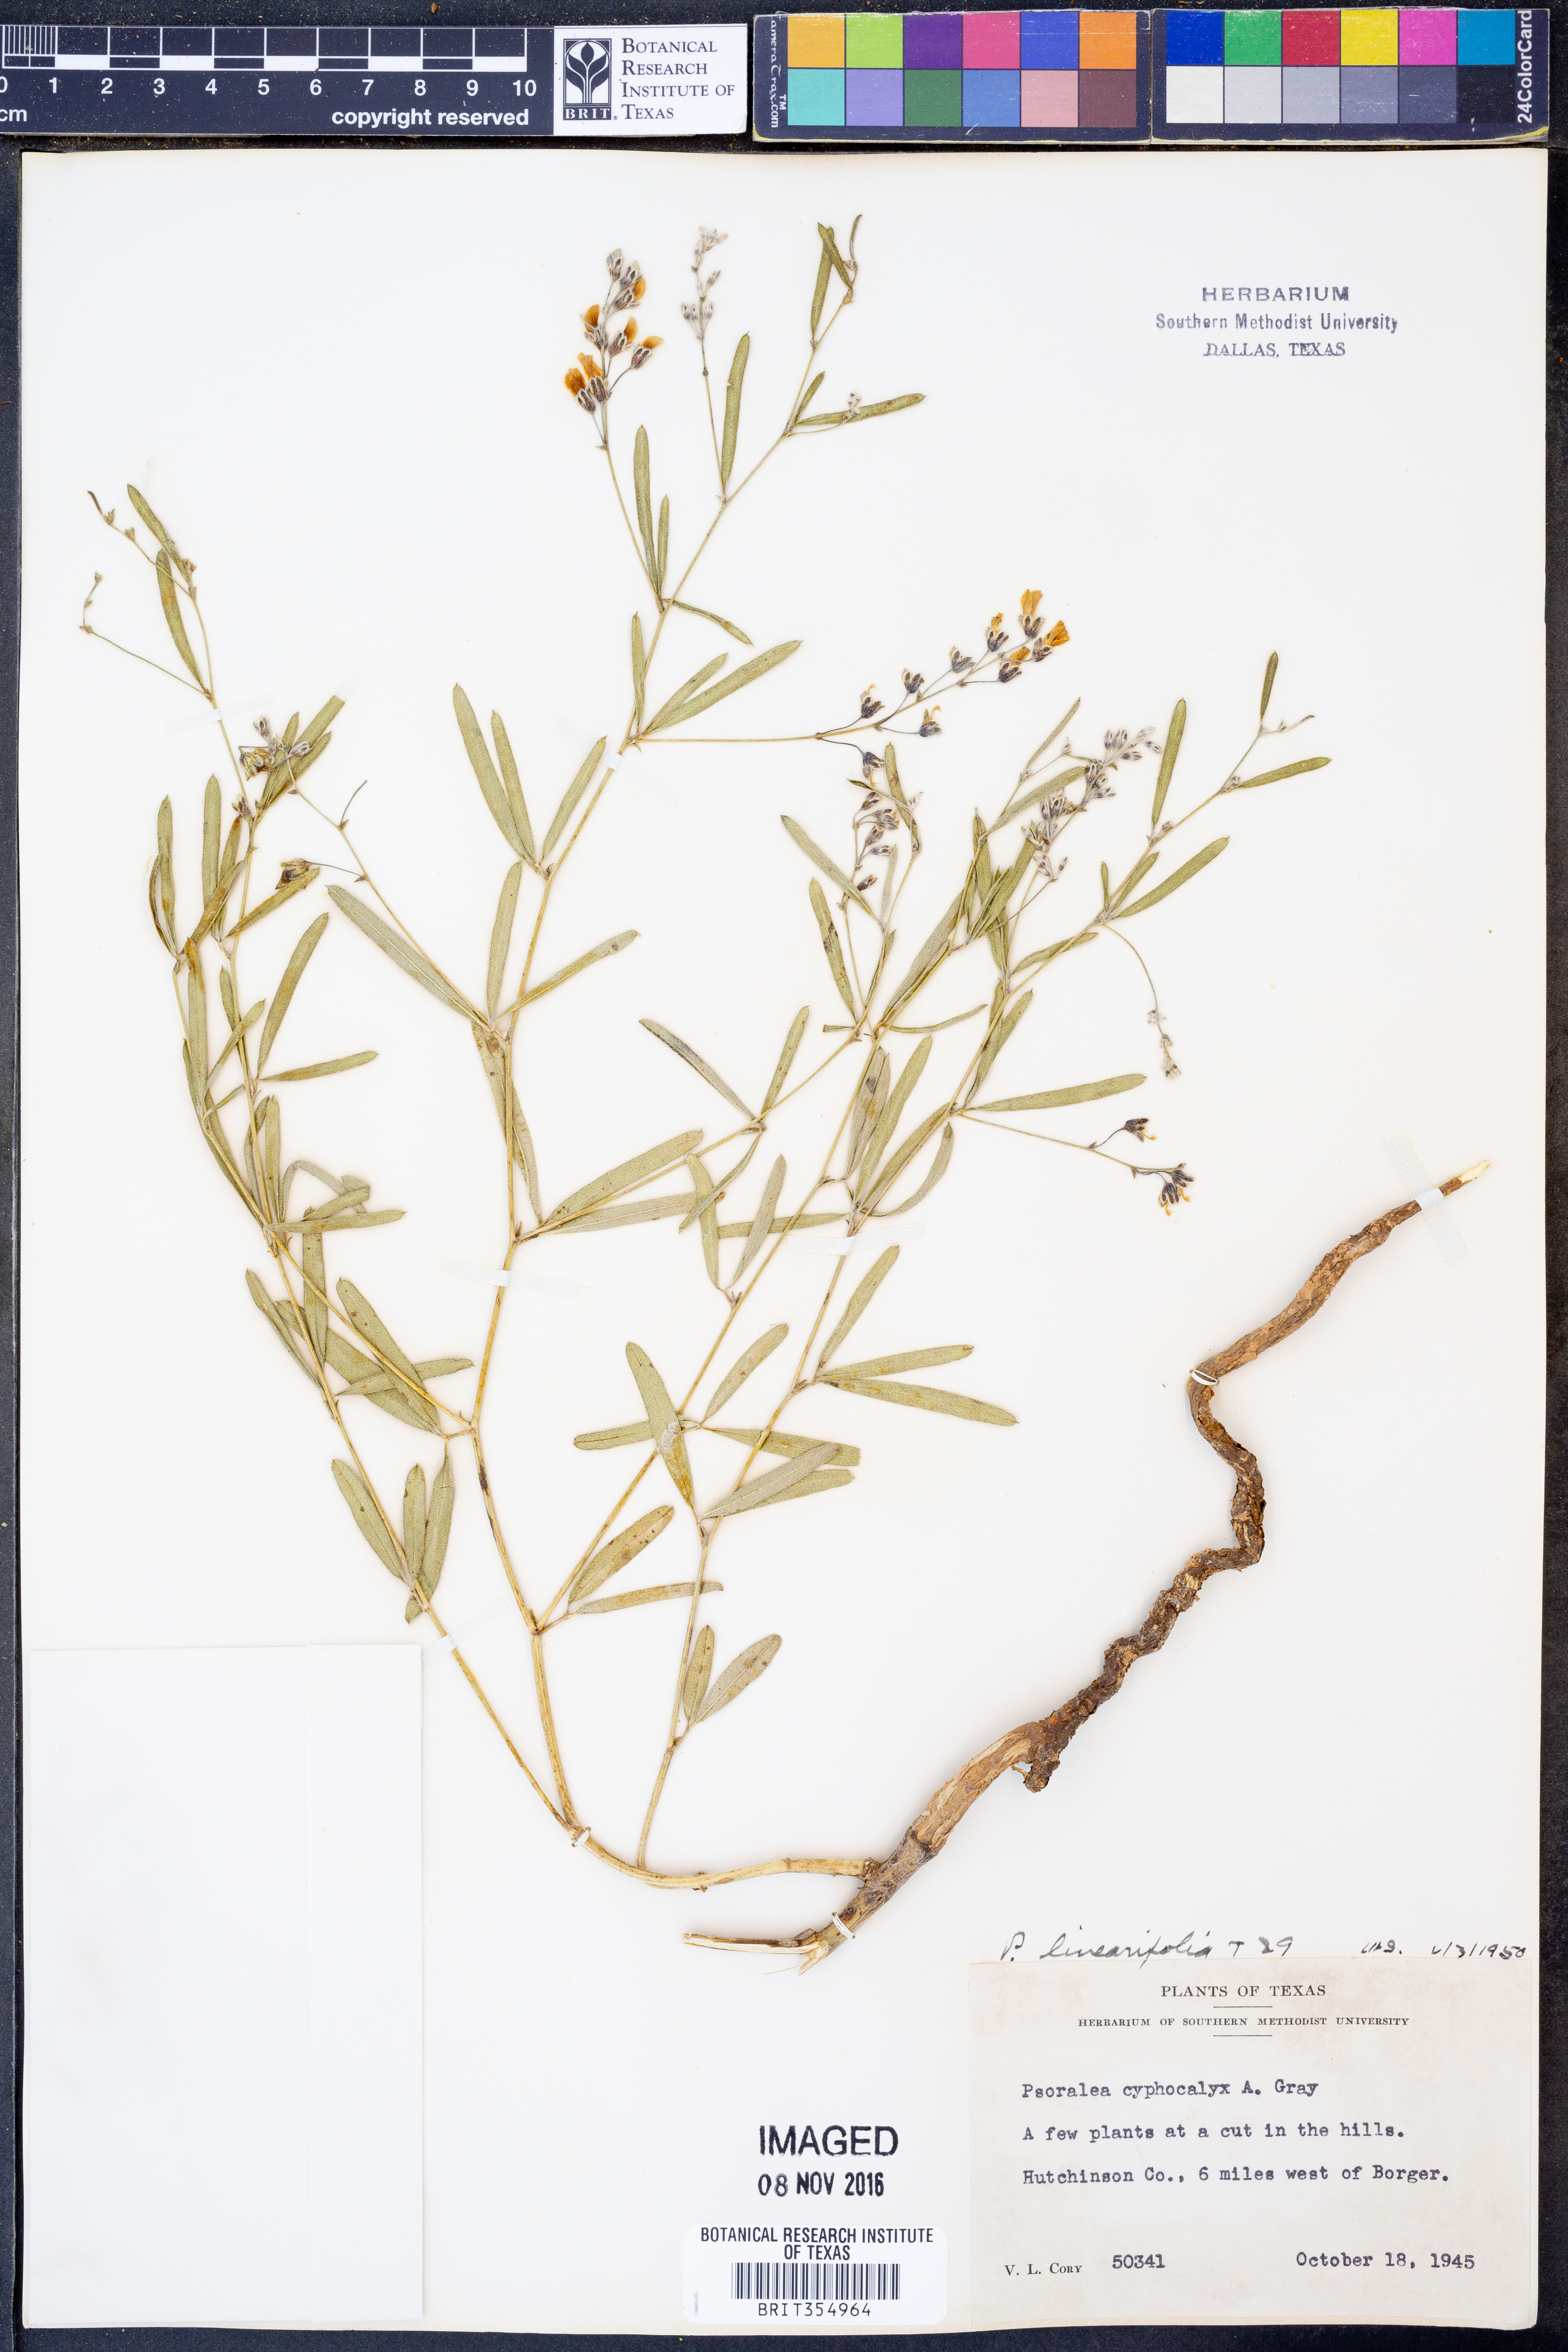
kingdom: Plantae
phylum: Tracheophyta
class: Magnoliopsida
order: Fabales
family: Fabaceae
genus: Pediomelum
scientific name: Pediomelum linearifolium
